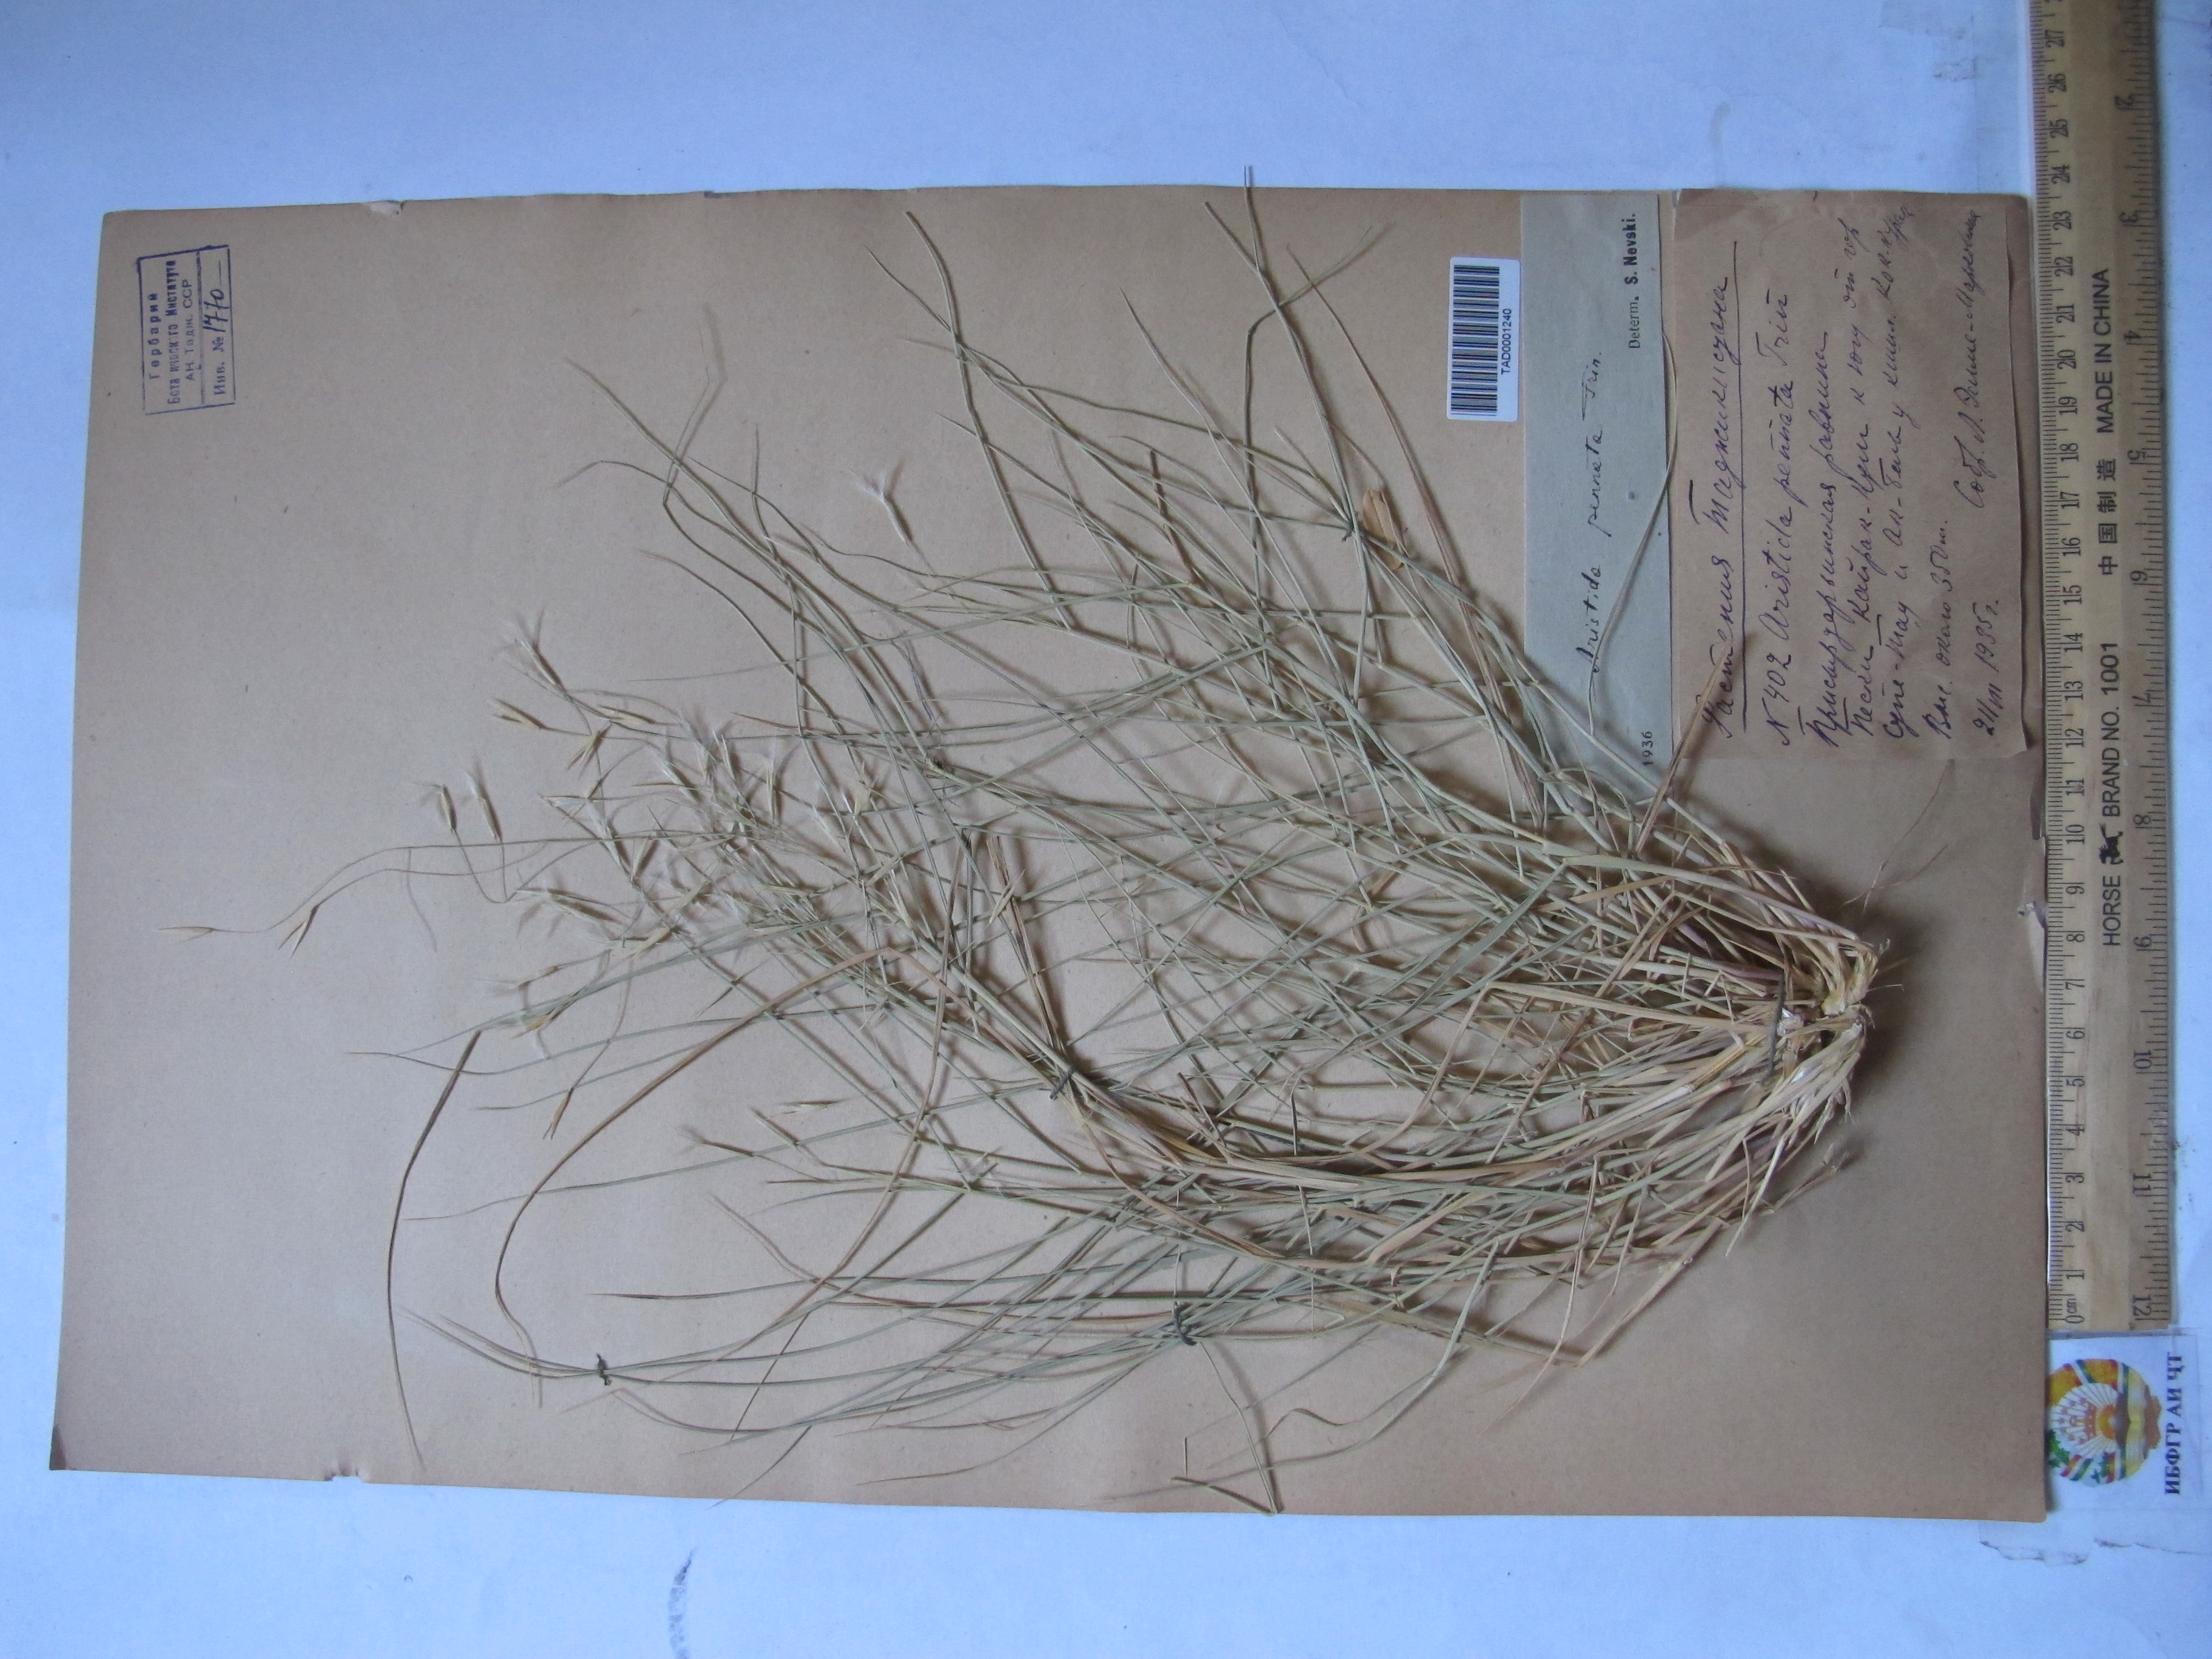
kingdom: Plantae
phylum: Tracheophyta
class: Liliopsida
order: Poales
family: Poaceae
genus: Stipagrostis
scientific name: Stipagrostis pennata
